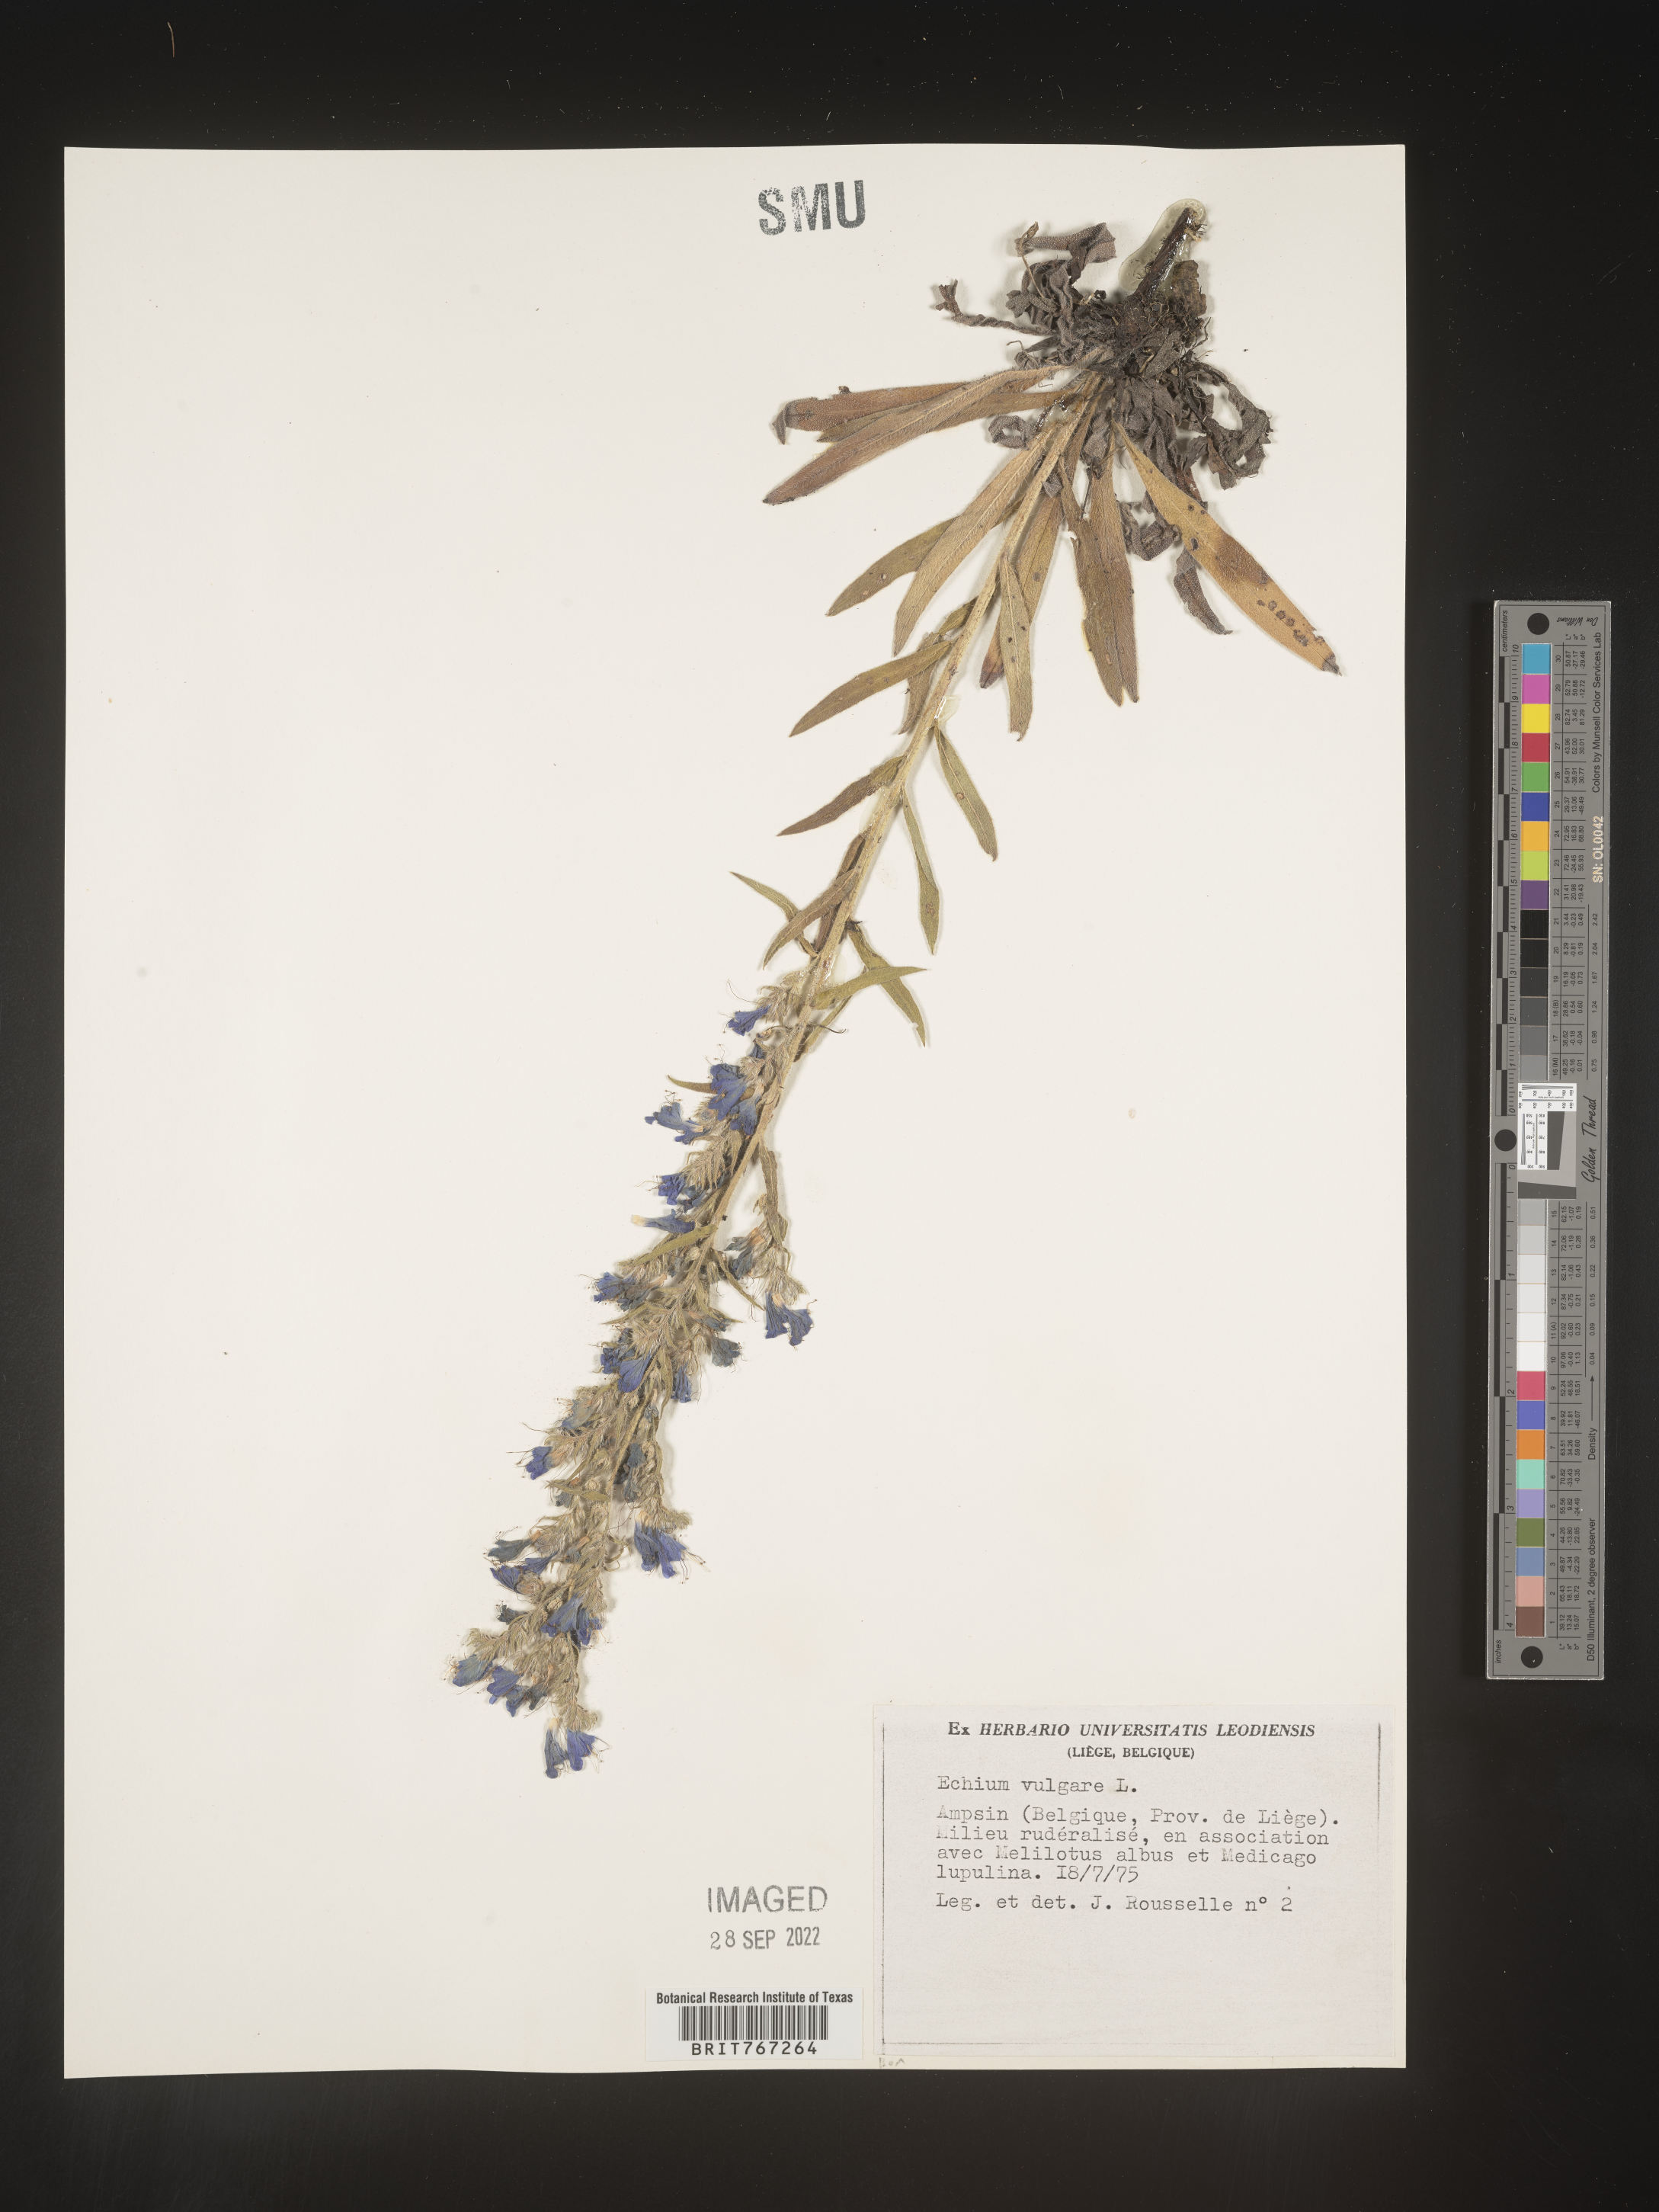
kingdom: Plantae
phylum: Tracheophyta
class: Magnoliopsida
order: Boraginales
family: Boraginaceae
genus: Echium
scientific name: Echium
